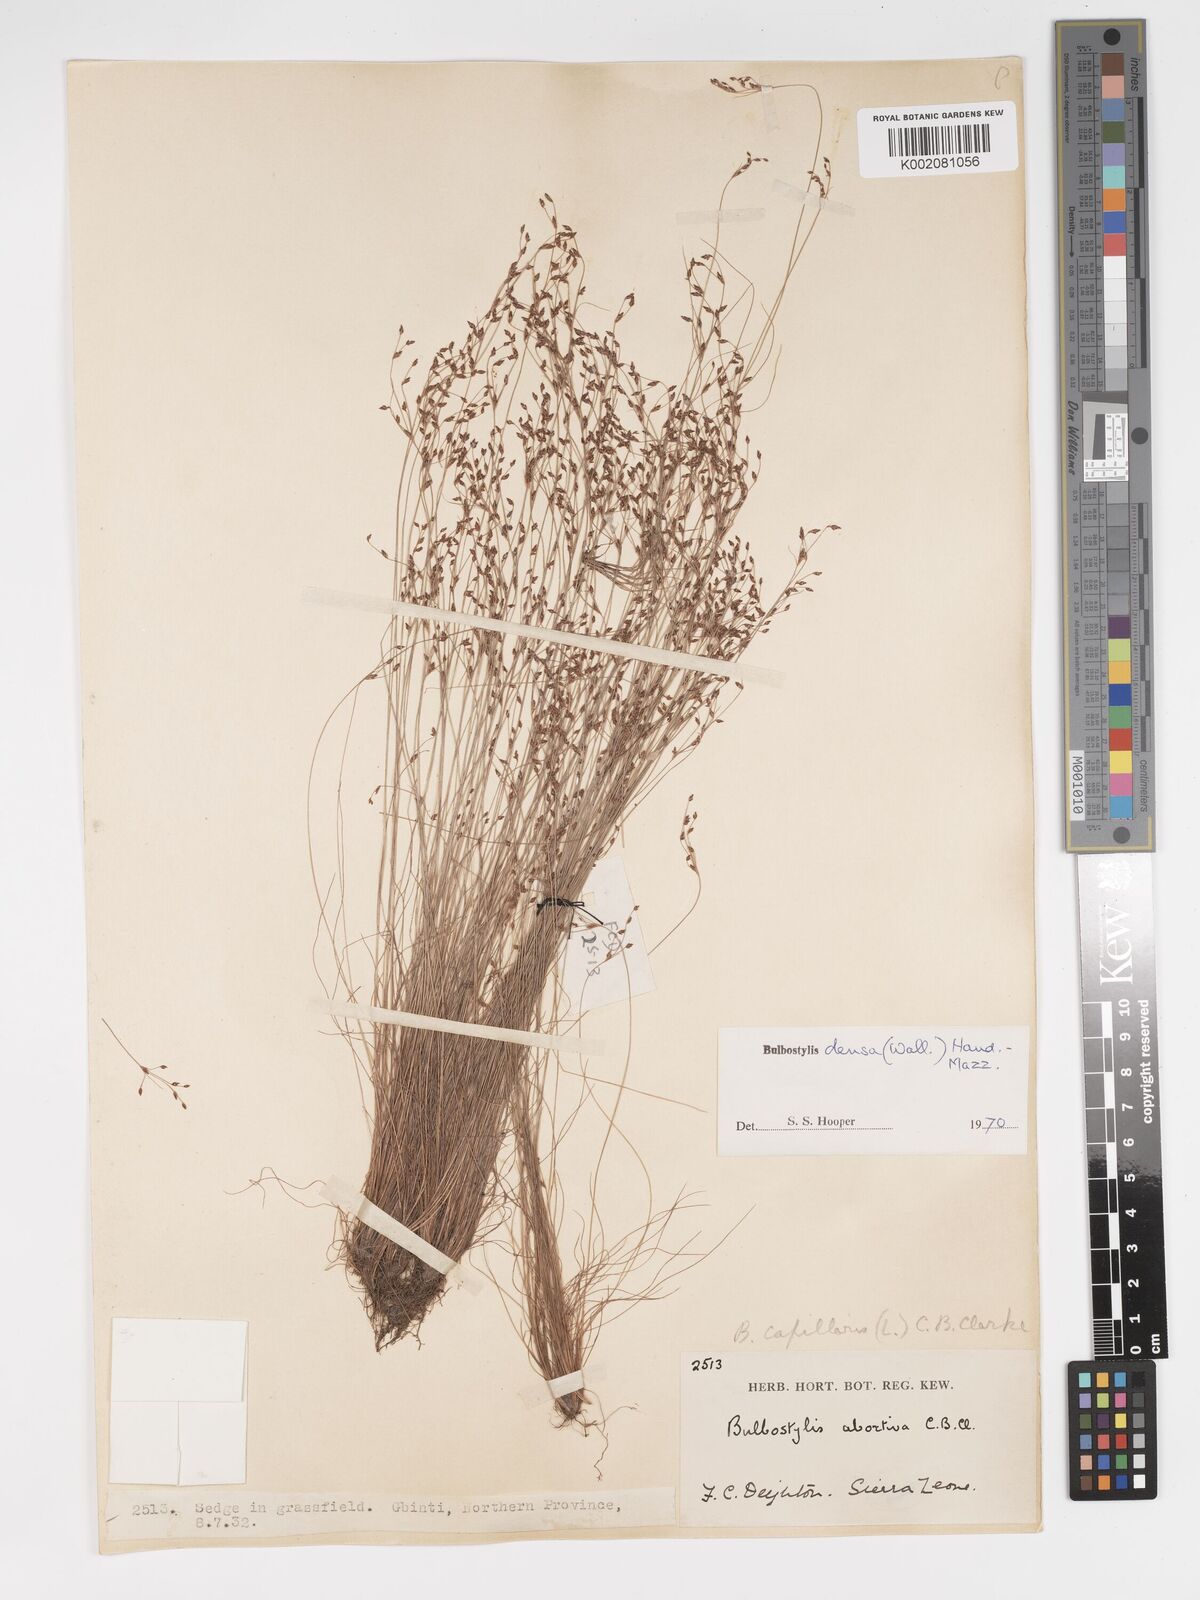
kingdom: Plantae
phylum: Tracheophyta
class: Liliopsida
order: Poales
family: Cyperaceae
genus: Bulbostylis
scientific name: Bulbostylis densa
